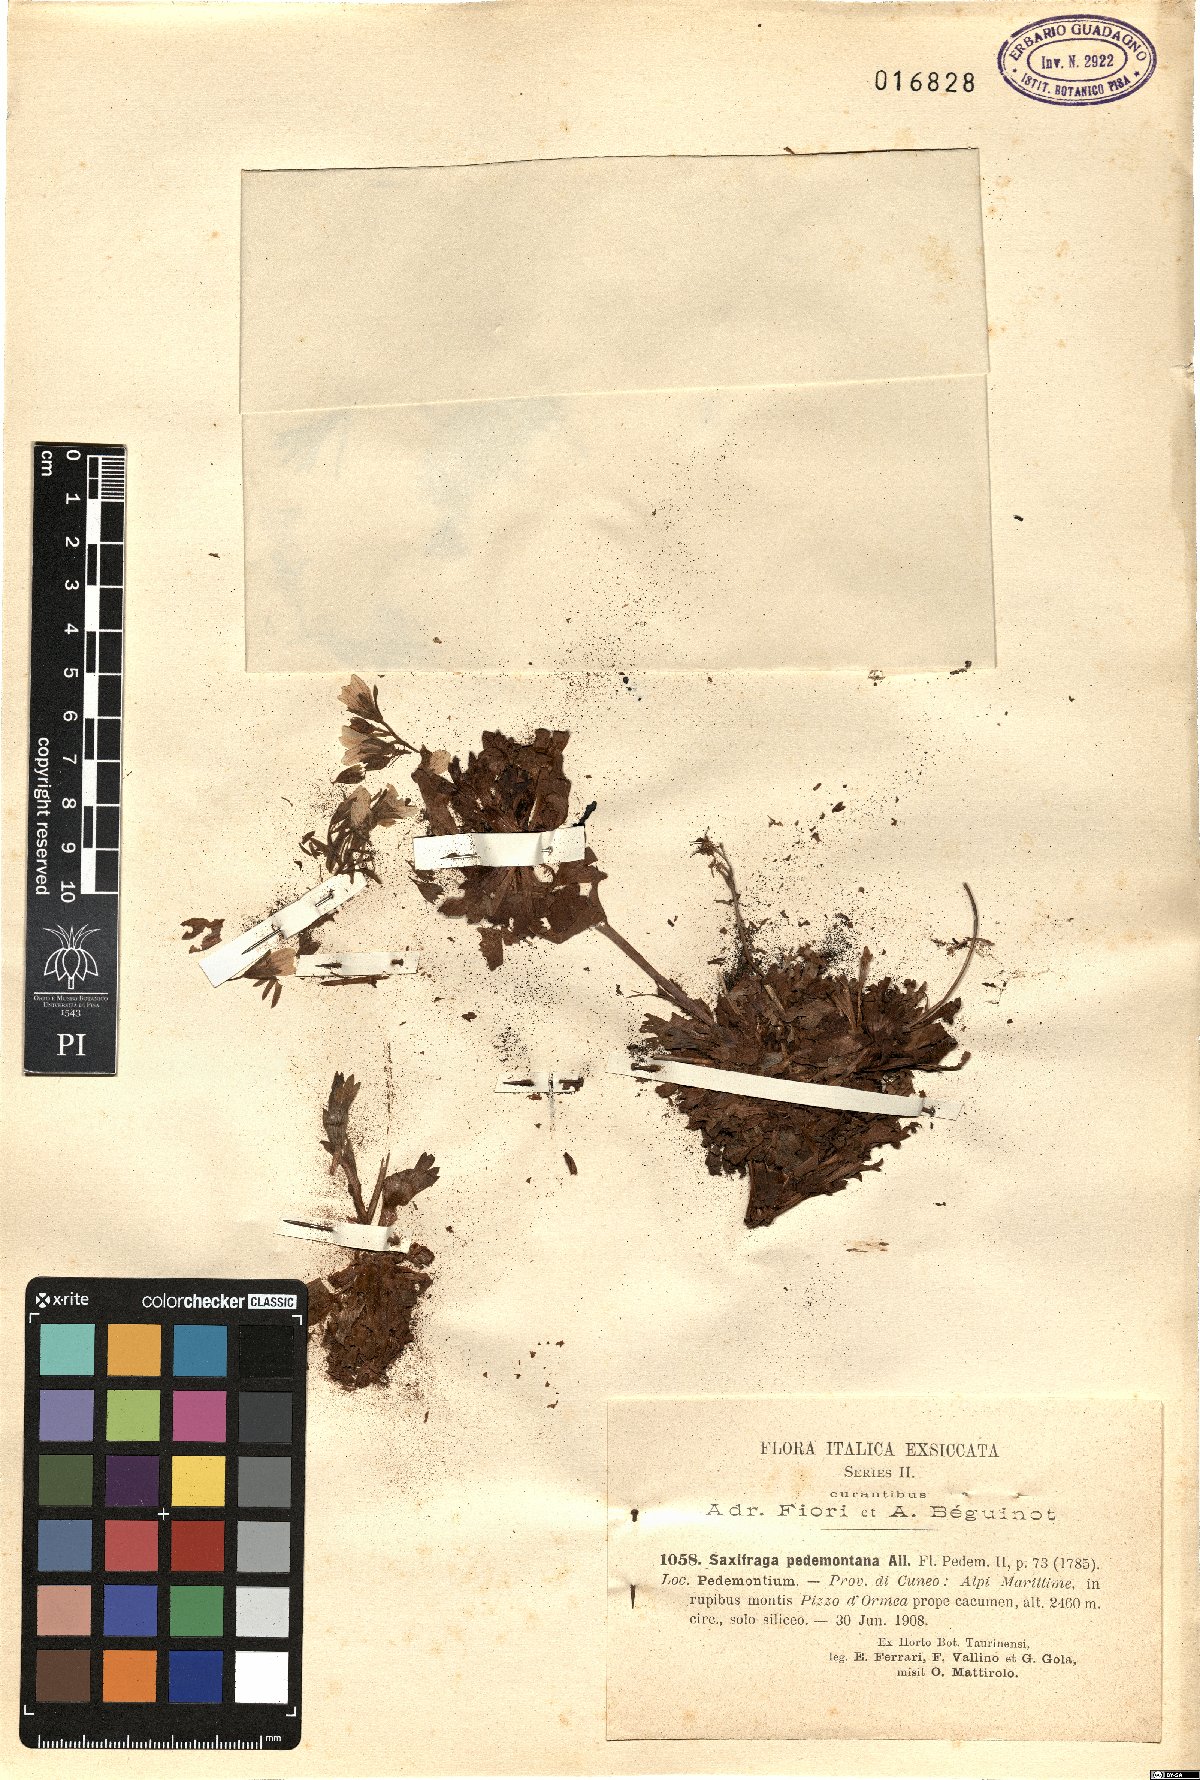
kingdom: Plantae
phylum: Tracheophyta
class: Magnoliopsida
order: Saxifragales
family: Saxifragaceae
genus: Saxifraga
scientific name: Saxifraga pedemontana
